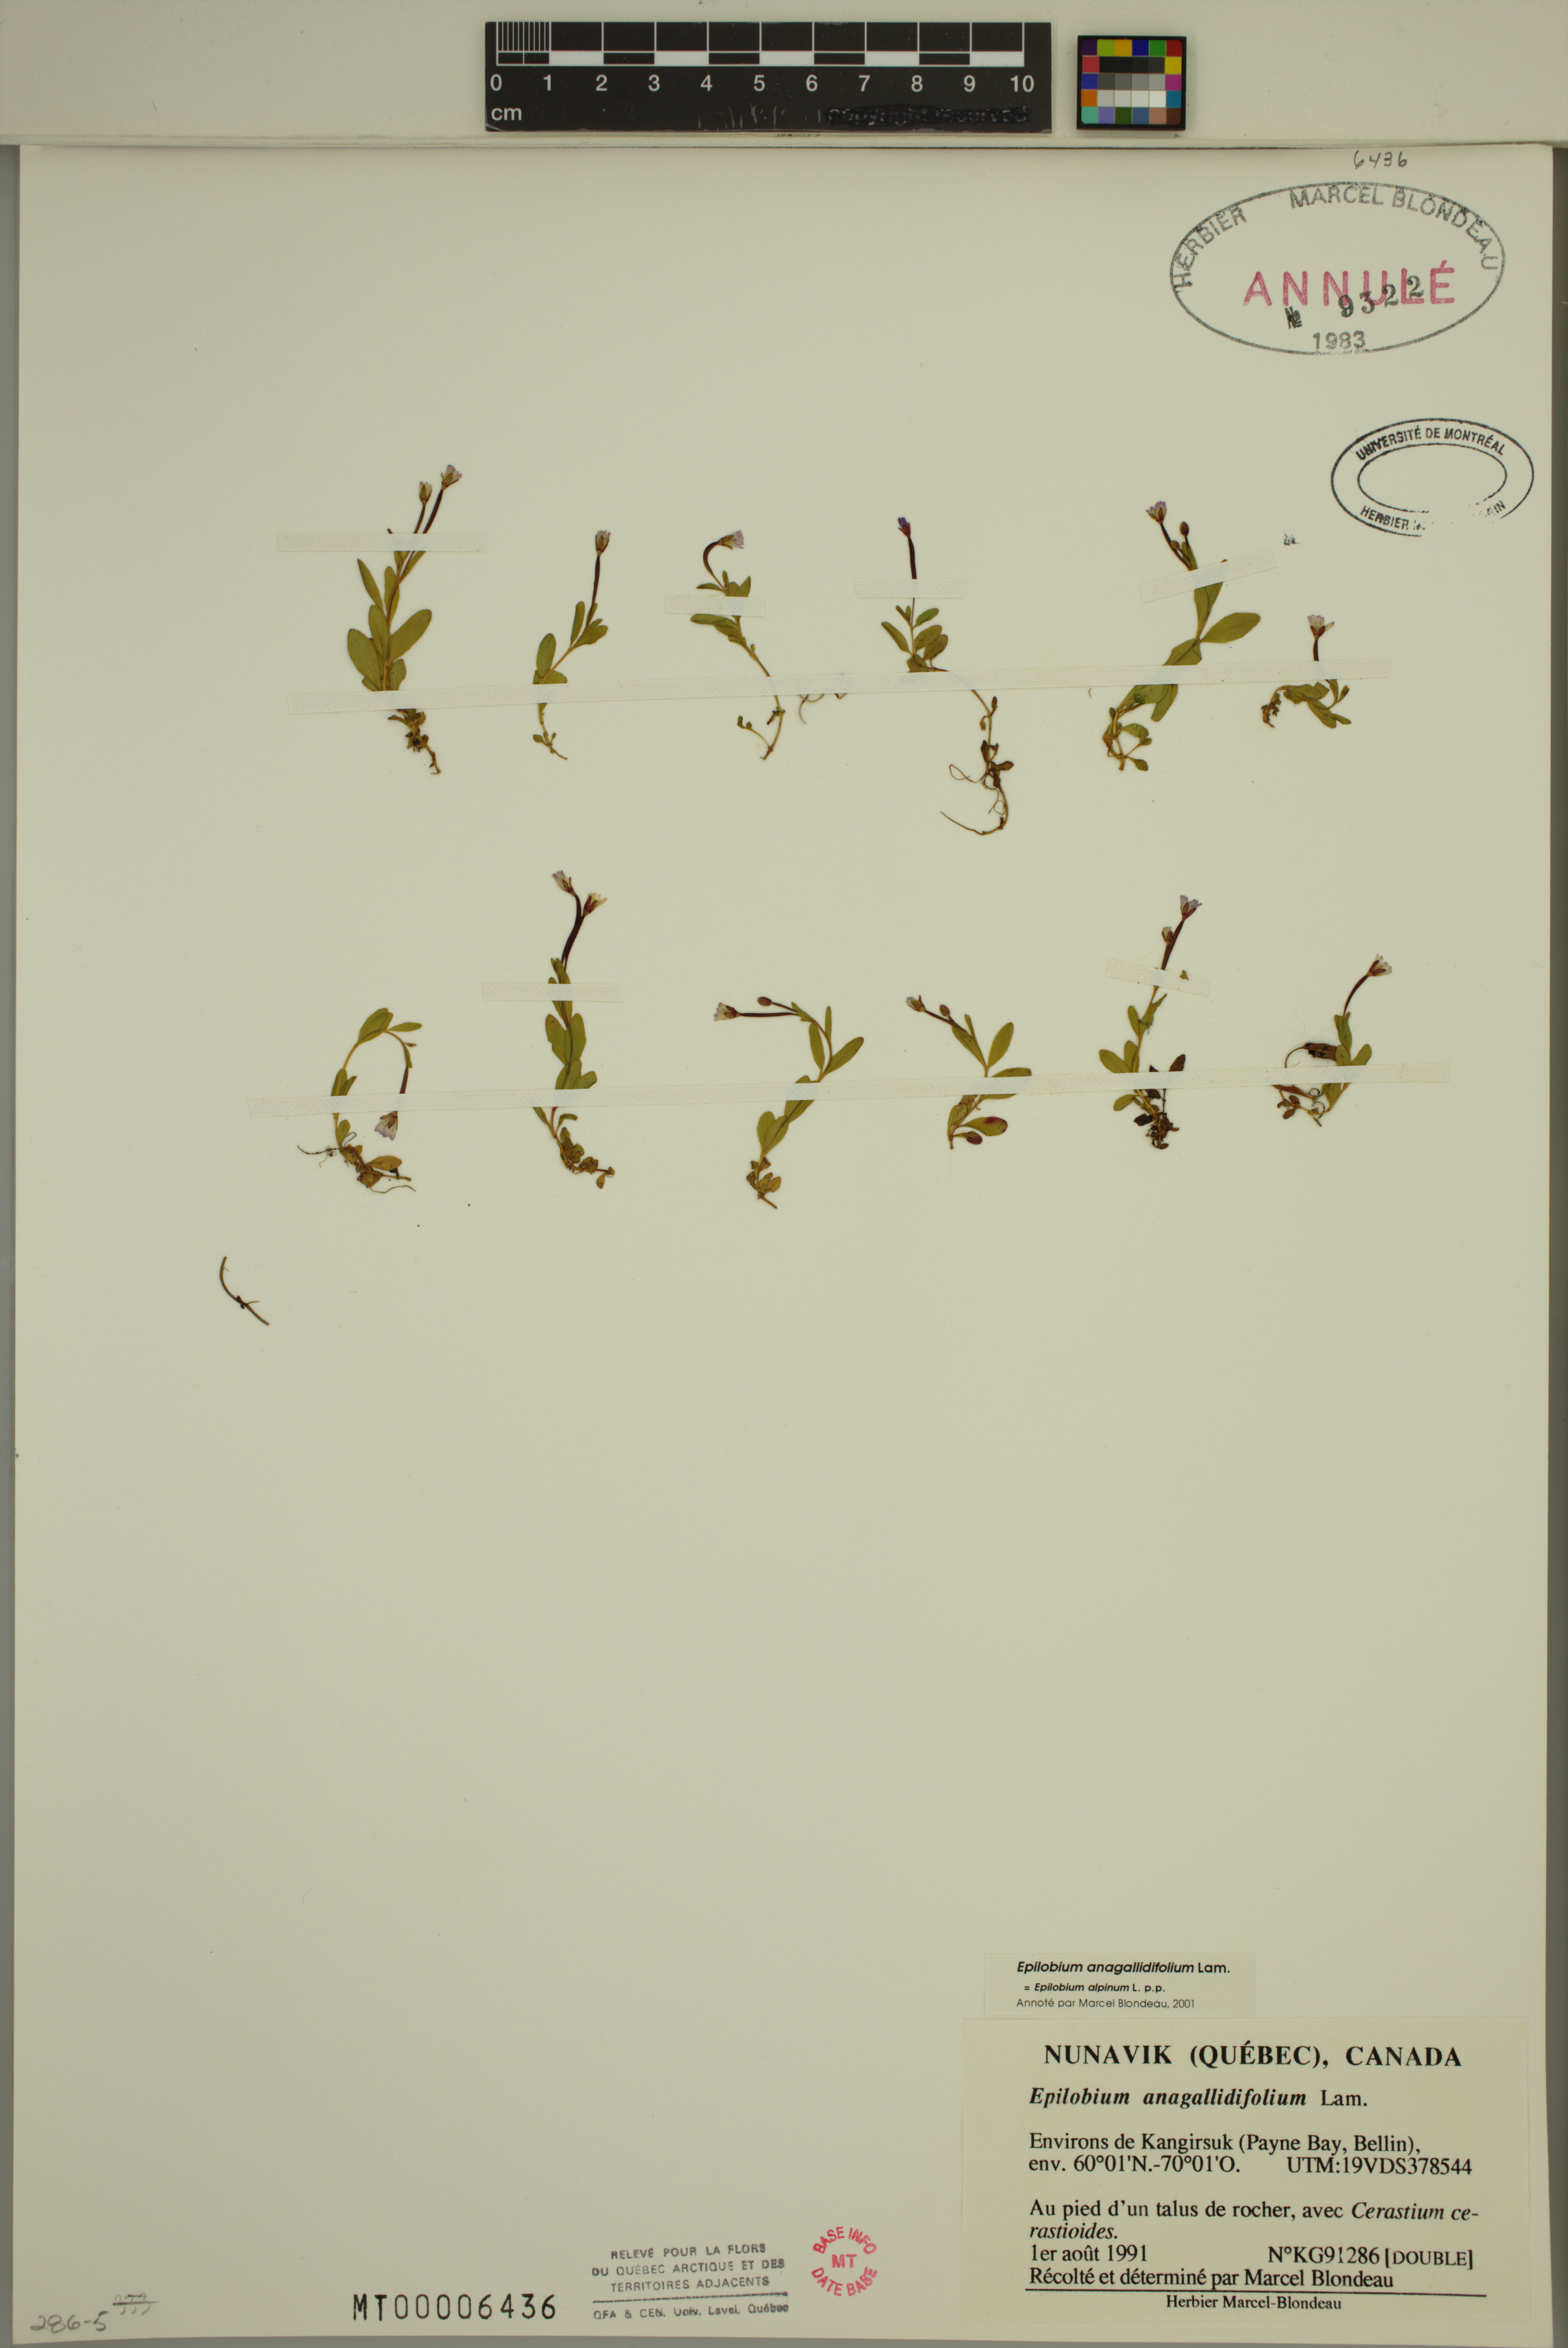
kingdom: Plantae
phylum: Tracheophyta
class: Magnoliopsida
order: Myrtales
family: Onagraceae
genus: Epilobium
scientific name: Epilobium anagallidifolium
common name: Alpine willowherb
